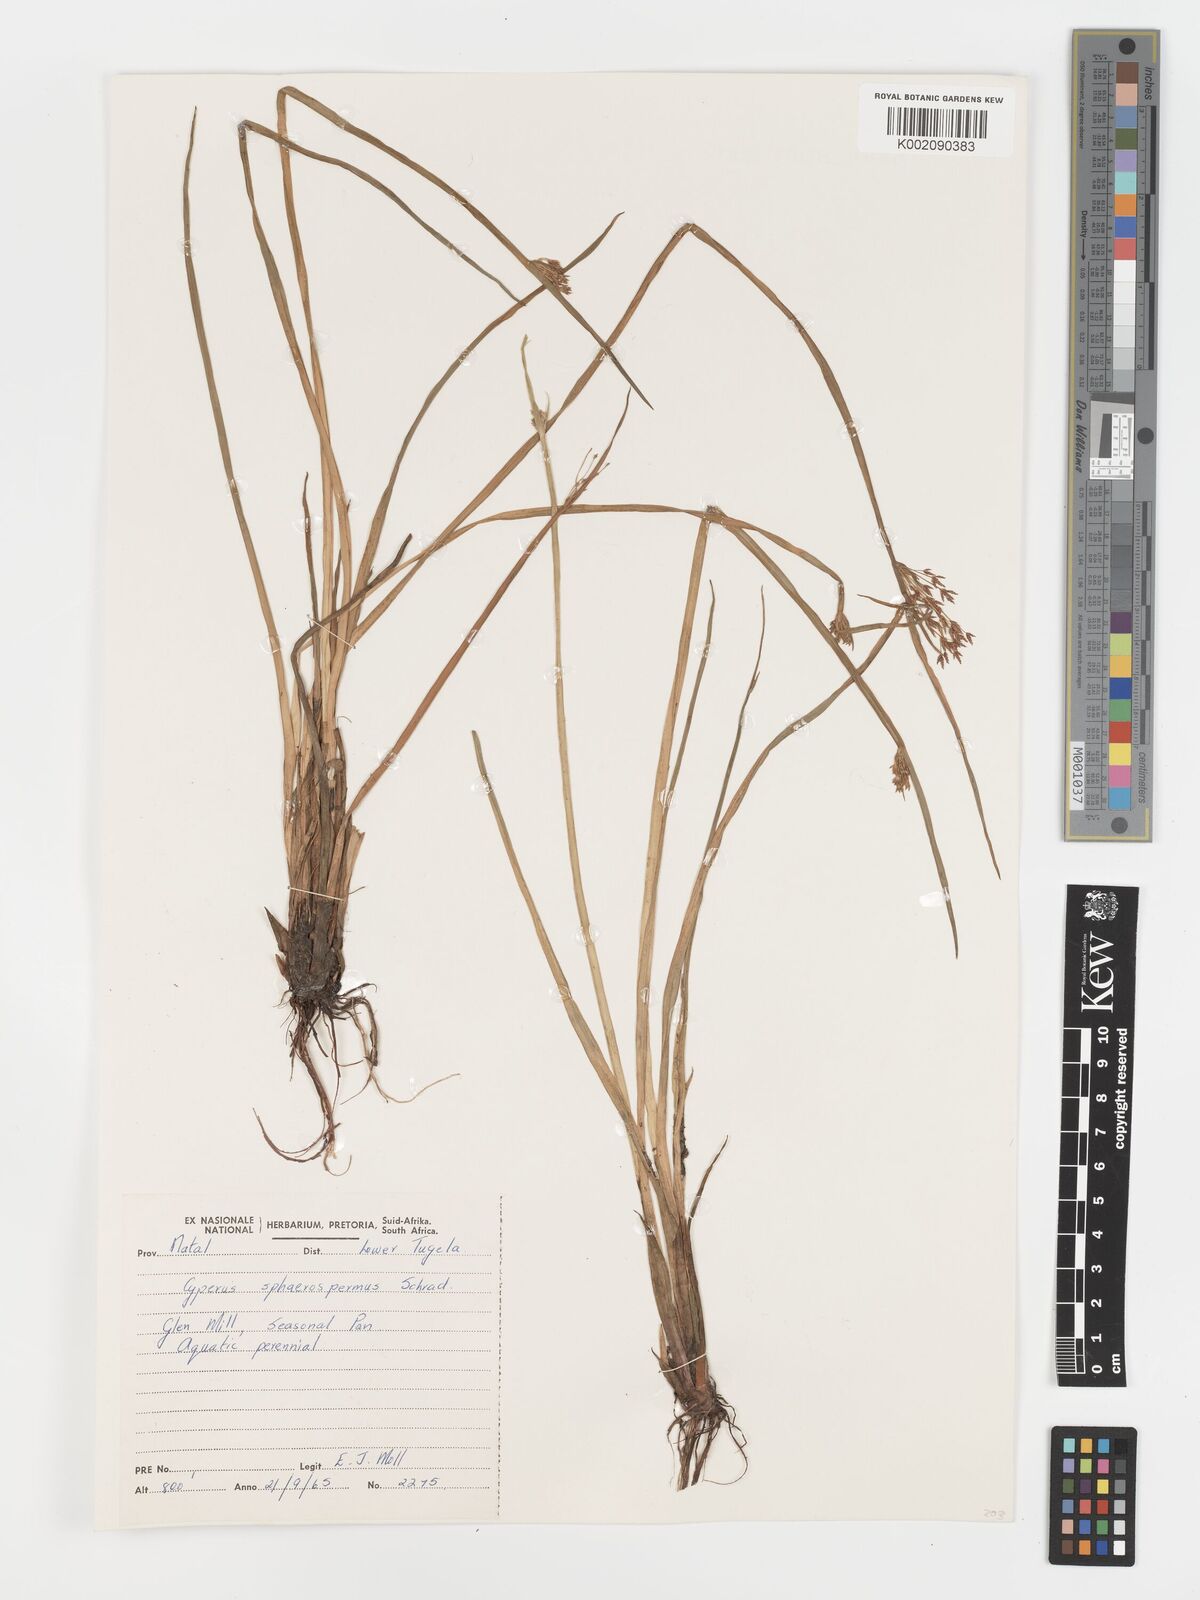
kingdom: Plantae
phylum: Tracheophyta
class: Liliopsida
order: Poales
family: Cyperaceae
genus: Cyperus
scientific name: Cyperus haspan
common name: Haspan flatsedge
